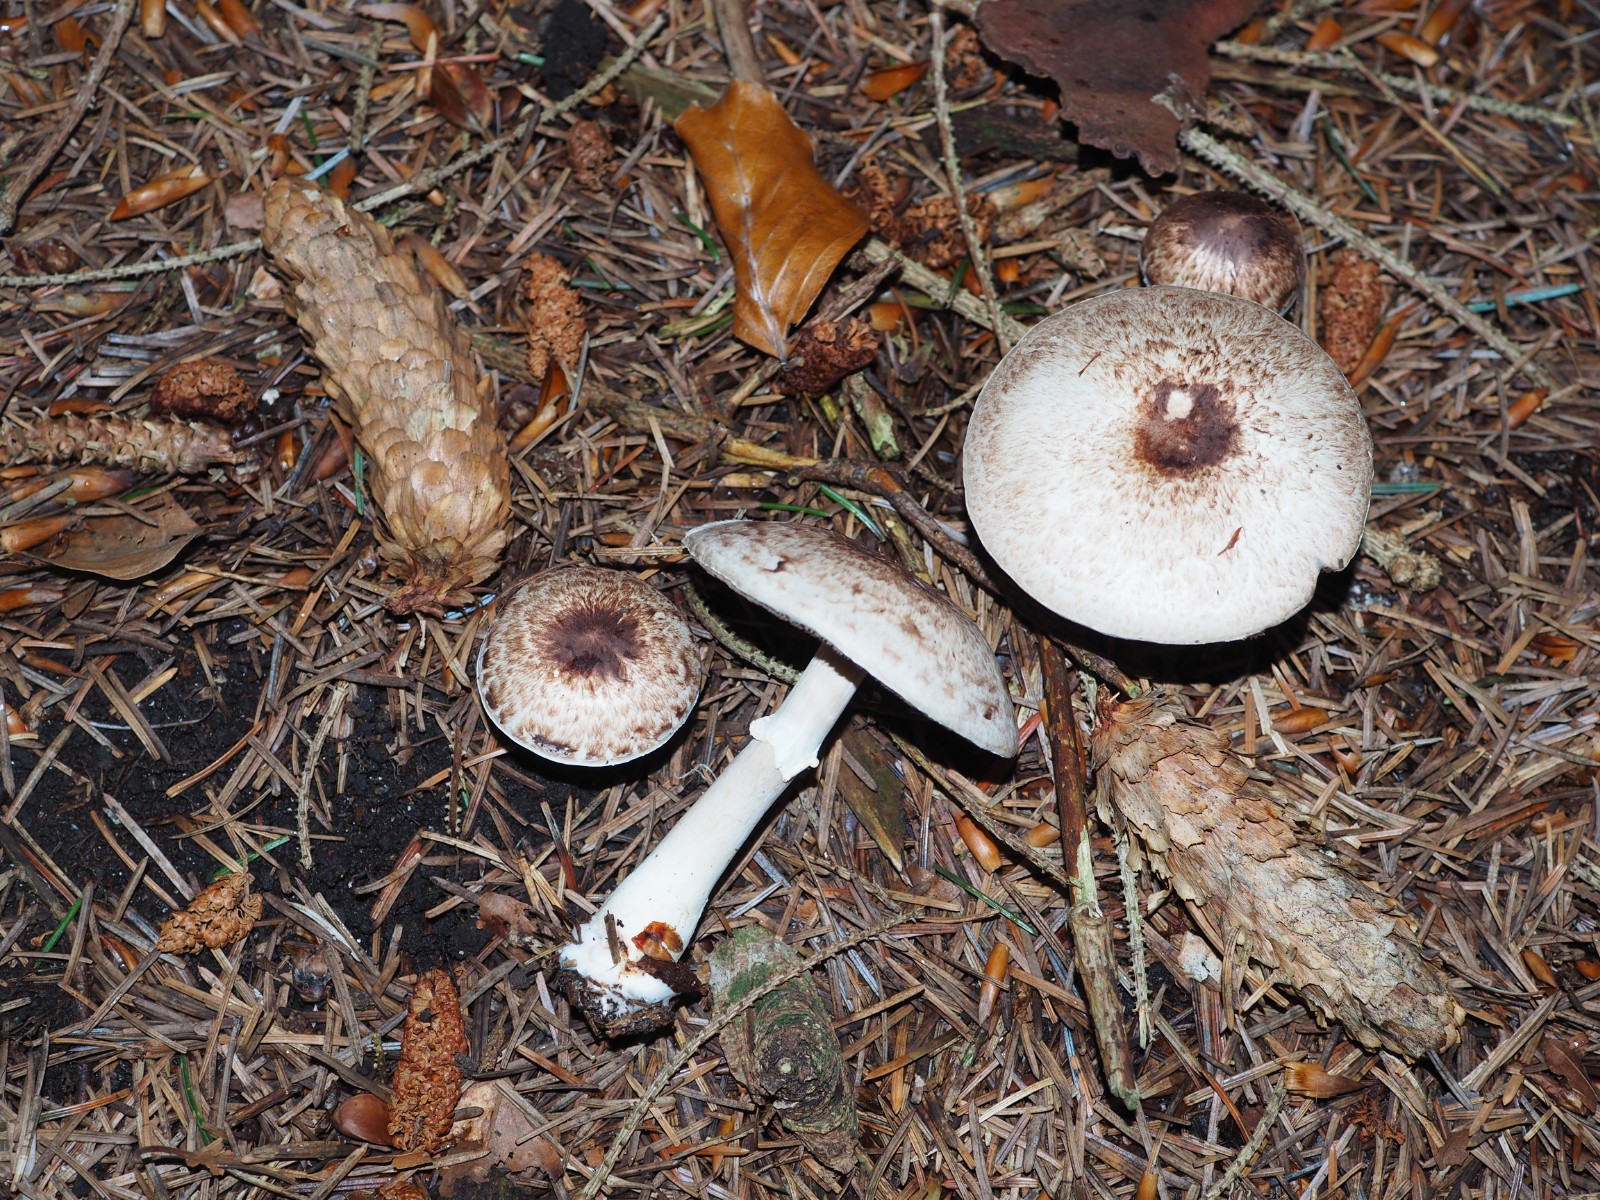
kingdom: Fungi
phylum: Basidiomycota
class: Agaricomycetes
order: Agaricales
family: Agaricaceae
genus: Agaricus
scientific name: Agaricus impudicus
